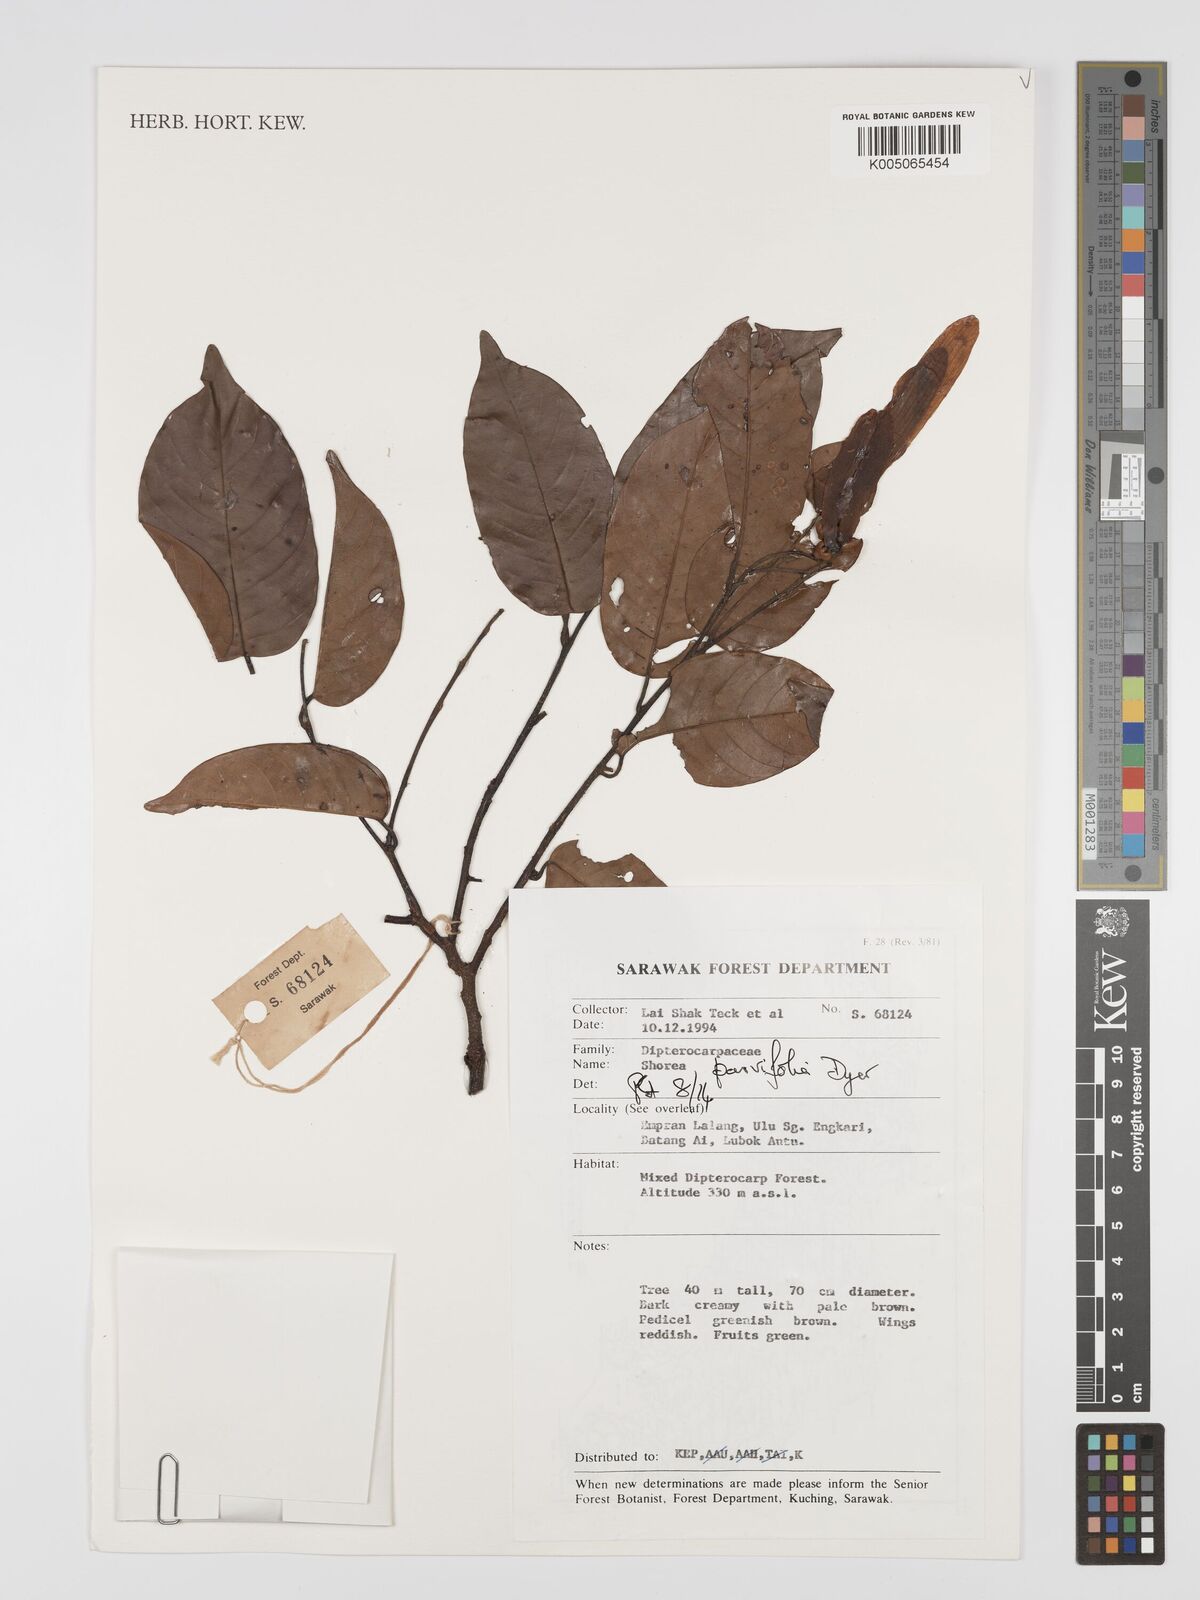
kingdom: Plantae
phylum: Tracheophyta
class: Magnoliopsida
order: Malvales
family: Dipterocarpaceae
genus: Shorea
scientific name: Shorea parvifolia
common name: Light red meranti
